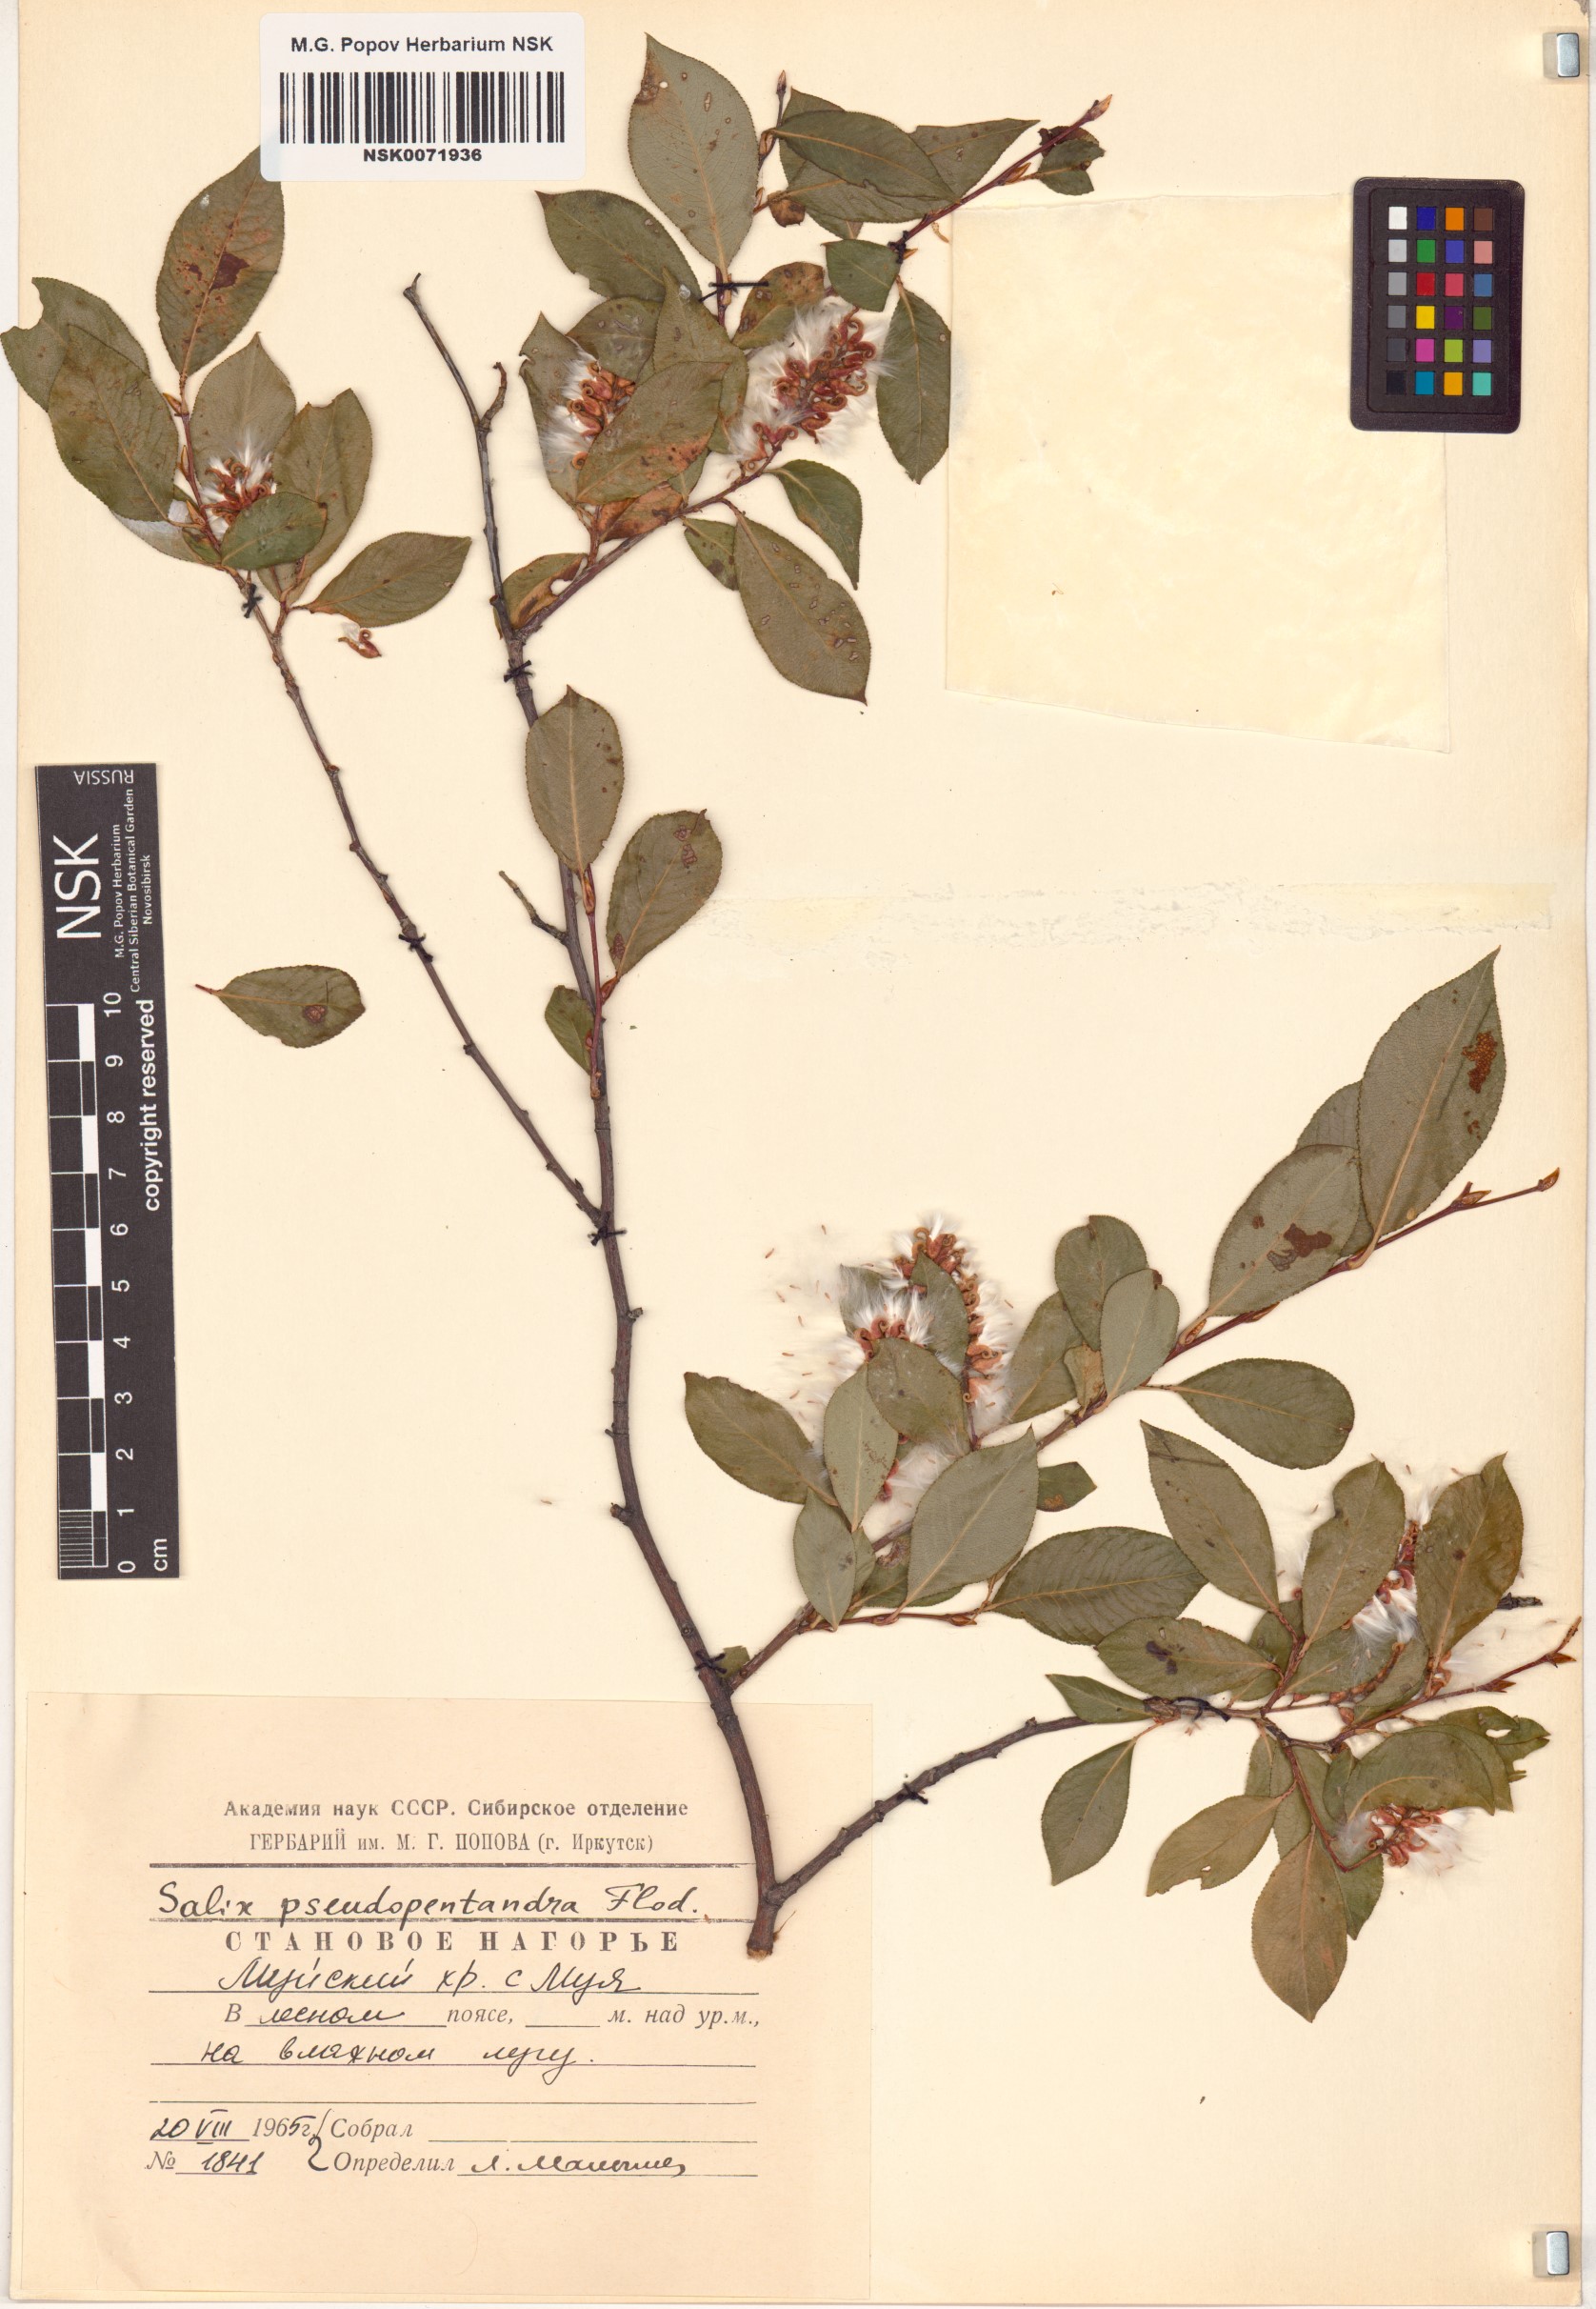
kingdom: Plantae
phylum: Tracheophyta
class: Magnoliopsida
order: Malpighiales
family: Salicaceae
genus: Salix
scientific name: Salix pseudopentandra
